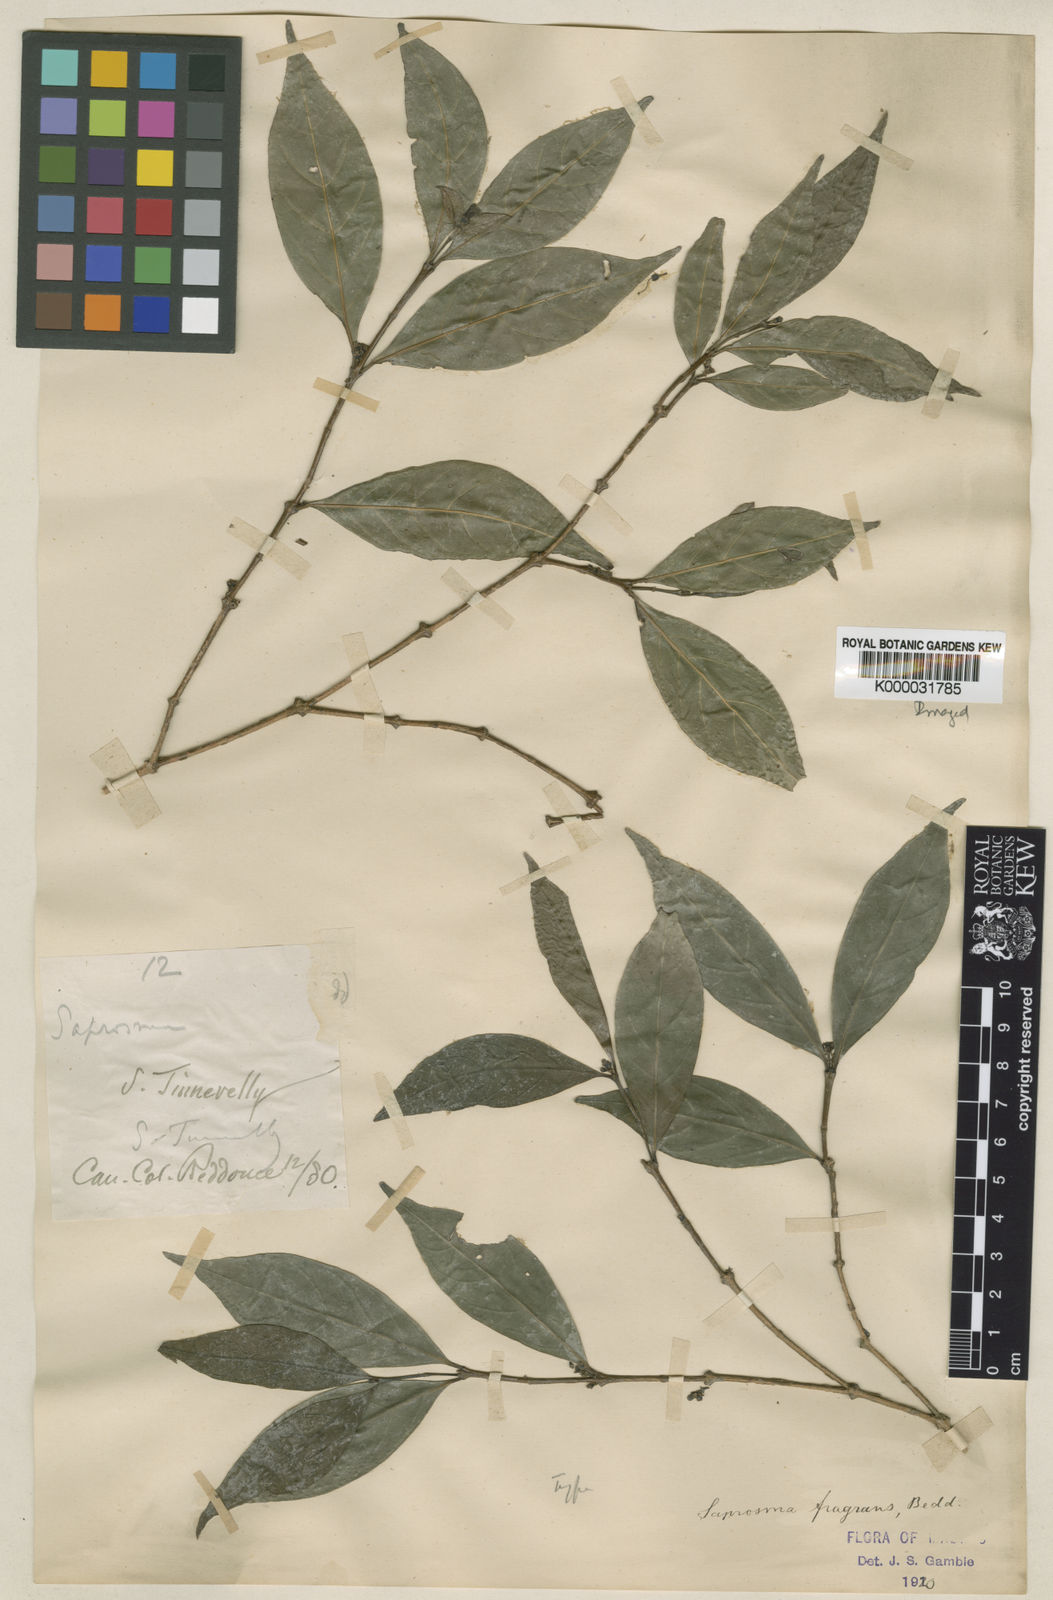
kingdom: Plantae
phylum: Tracheophyta
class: Magnoliopsida
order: Gentianales
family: Rubiaceae
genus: Saprosma
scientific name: Saprosma fragrans
